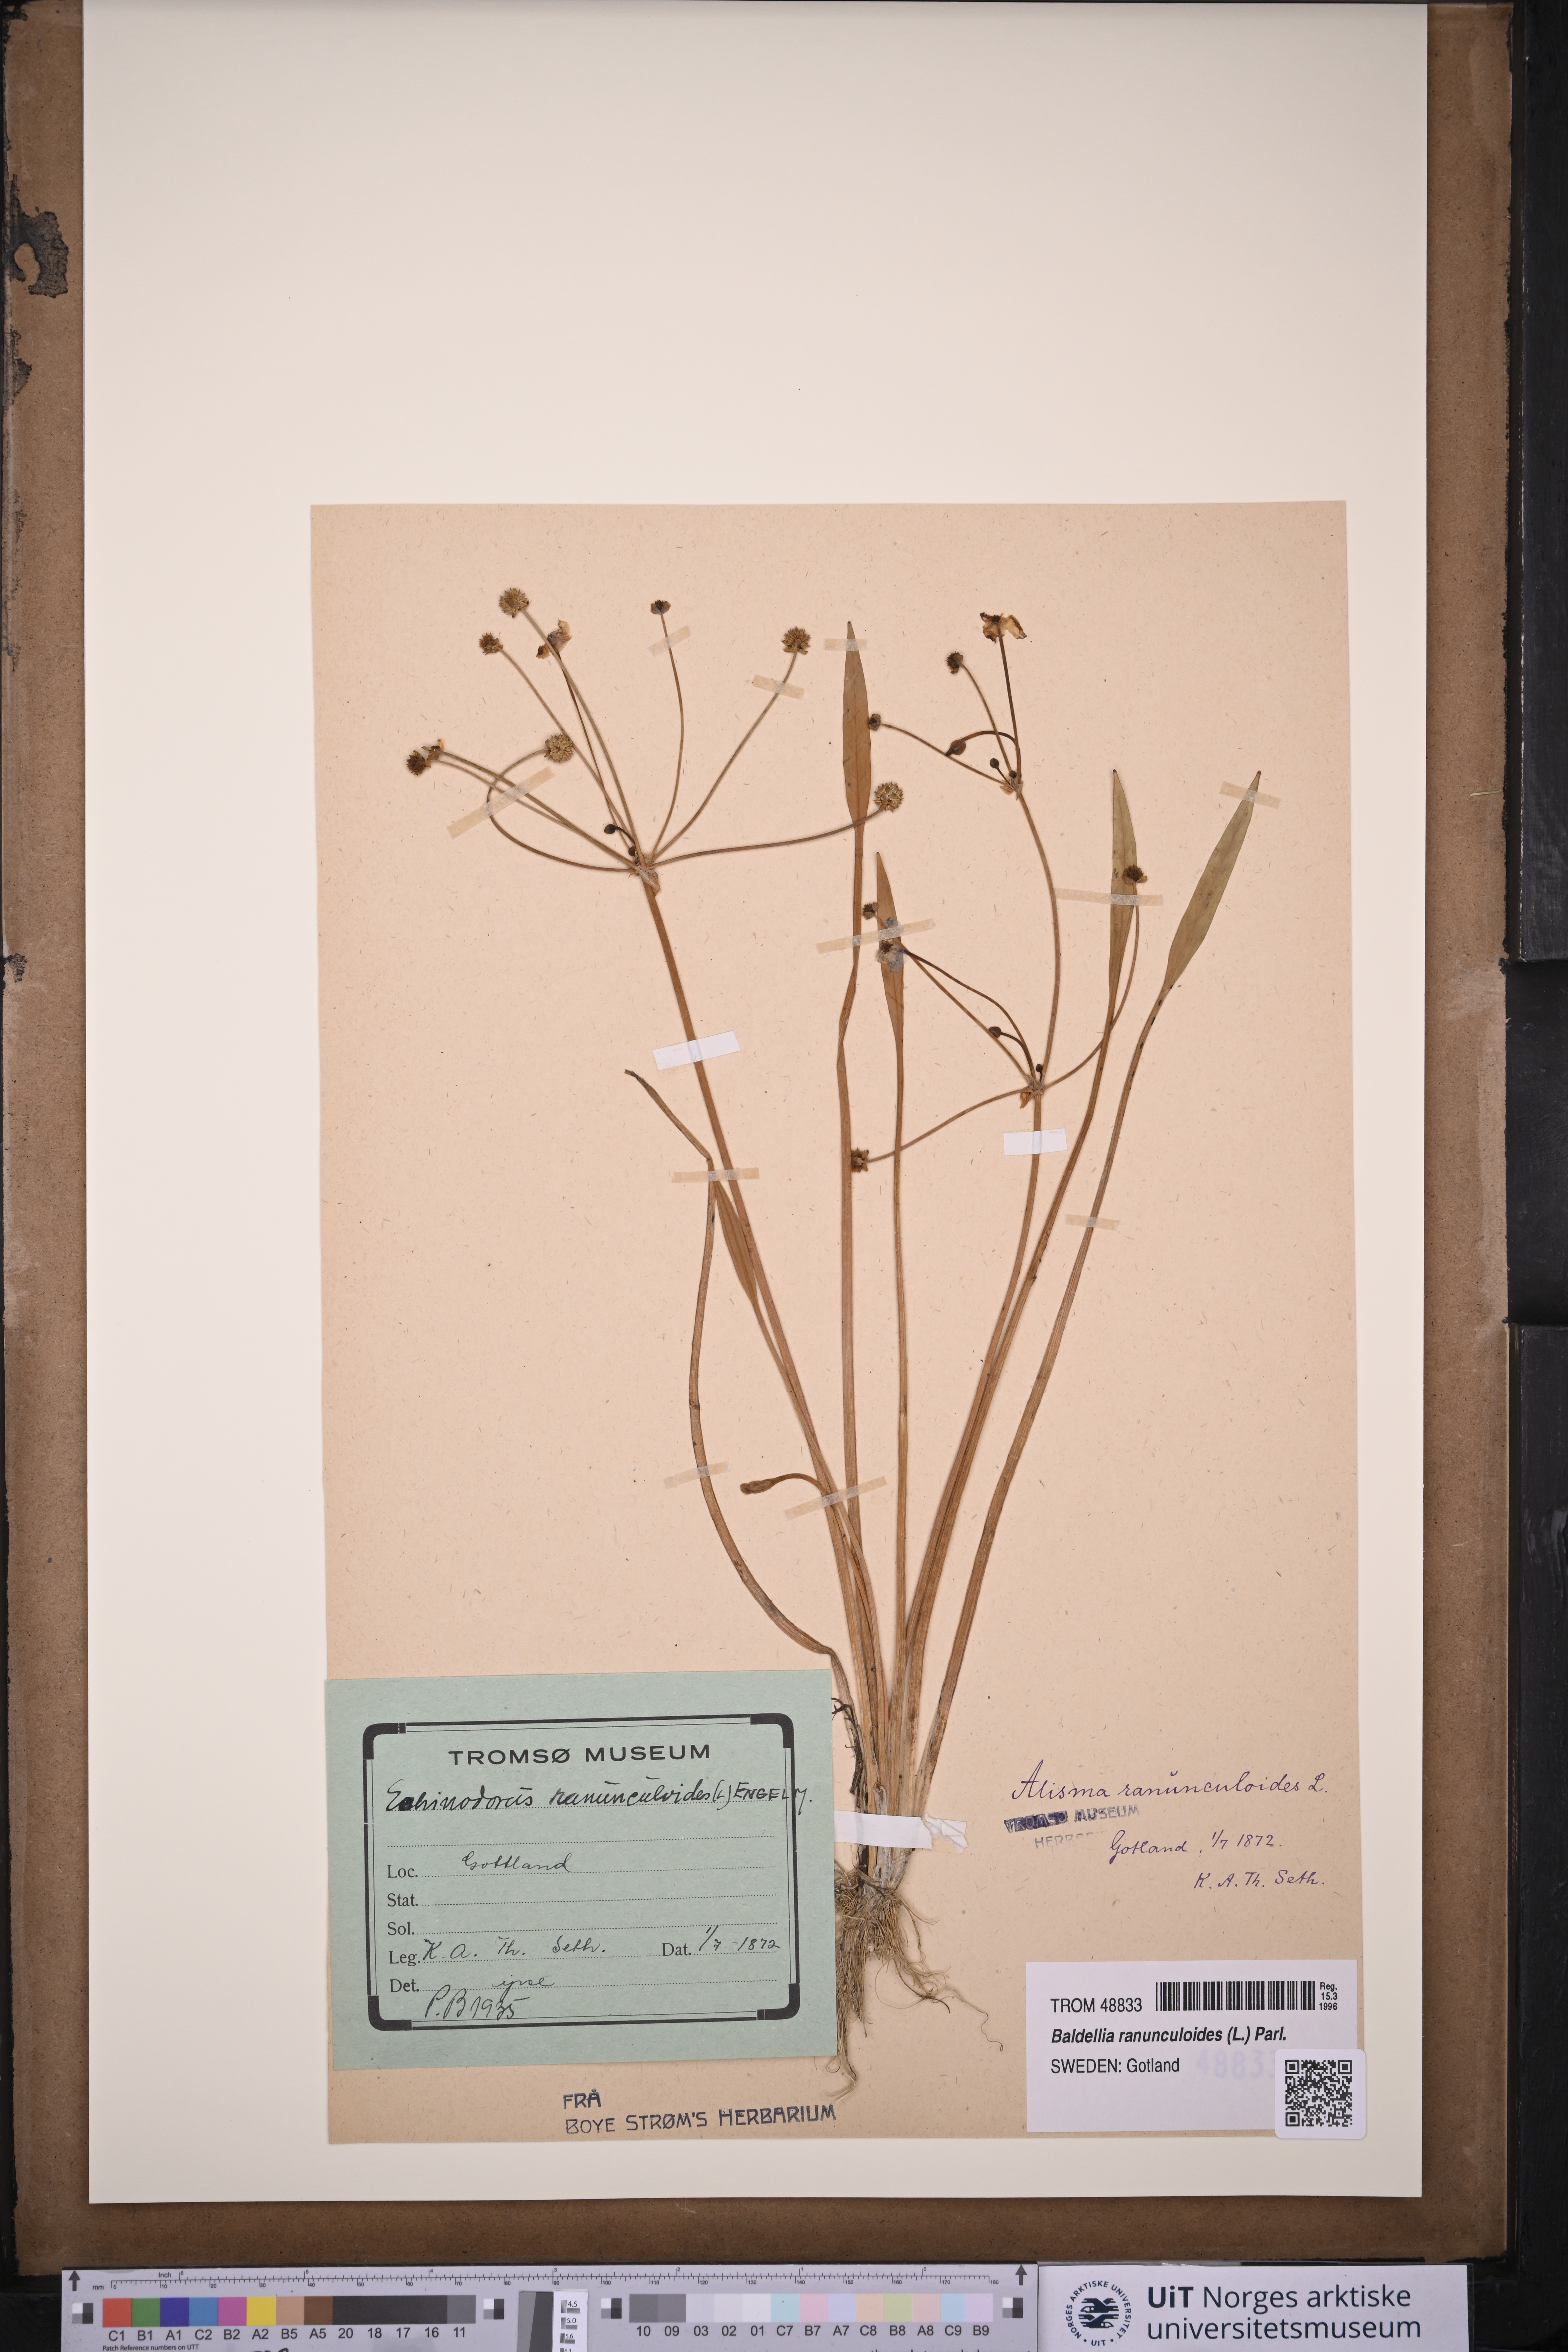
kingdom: Plantae
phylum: Tracheophyta
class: Liliopsida
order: Alismatales
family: Alismataceae
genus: Baldellia
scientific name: Baldellia ranunculoides
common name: Lesser water-plantain
